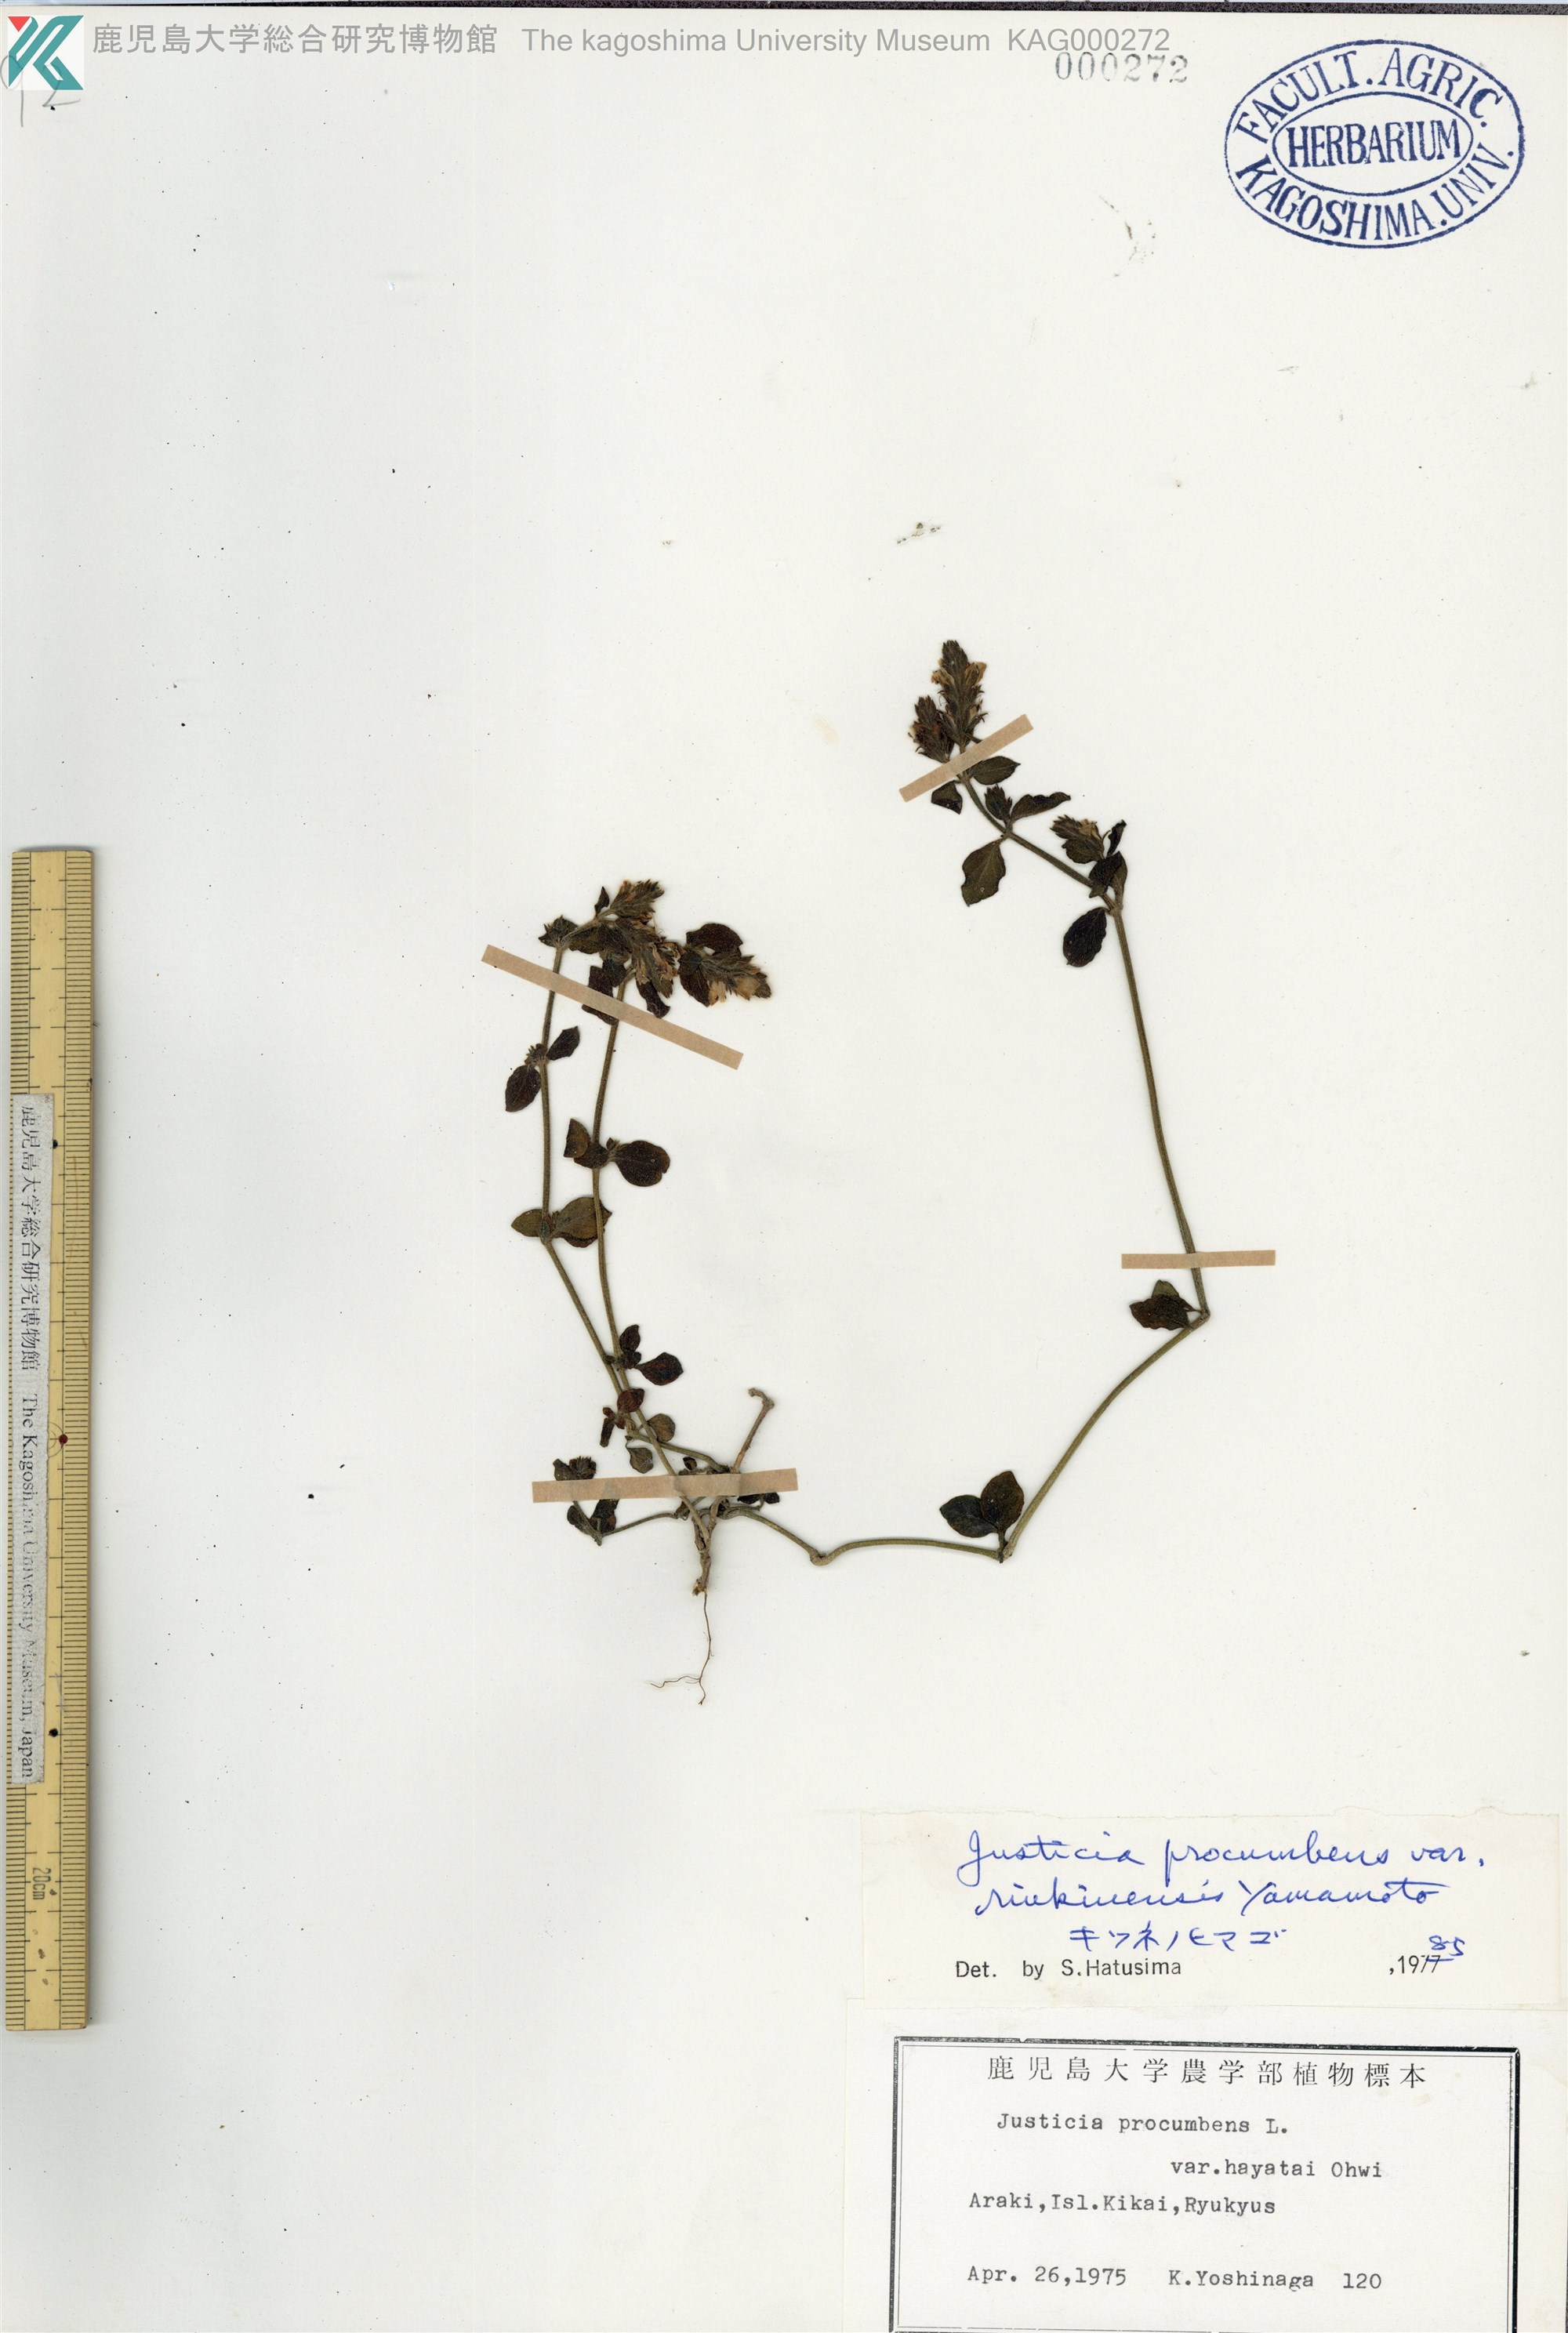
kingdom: Plantae
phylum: Tracheophyta
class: Magnoliopsida
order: Lamiales
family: Acanthaceae
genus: Rostellularia
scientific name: Rostellularia procumbens
